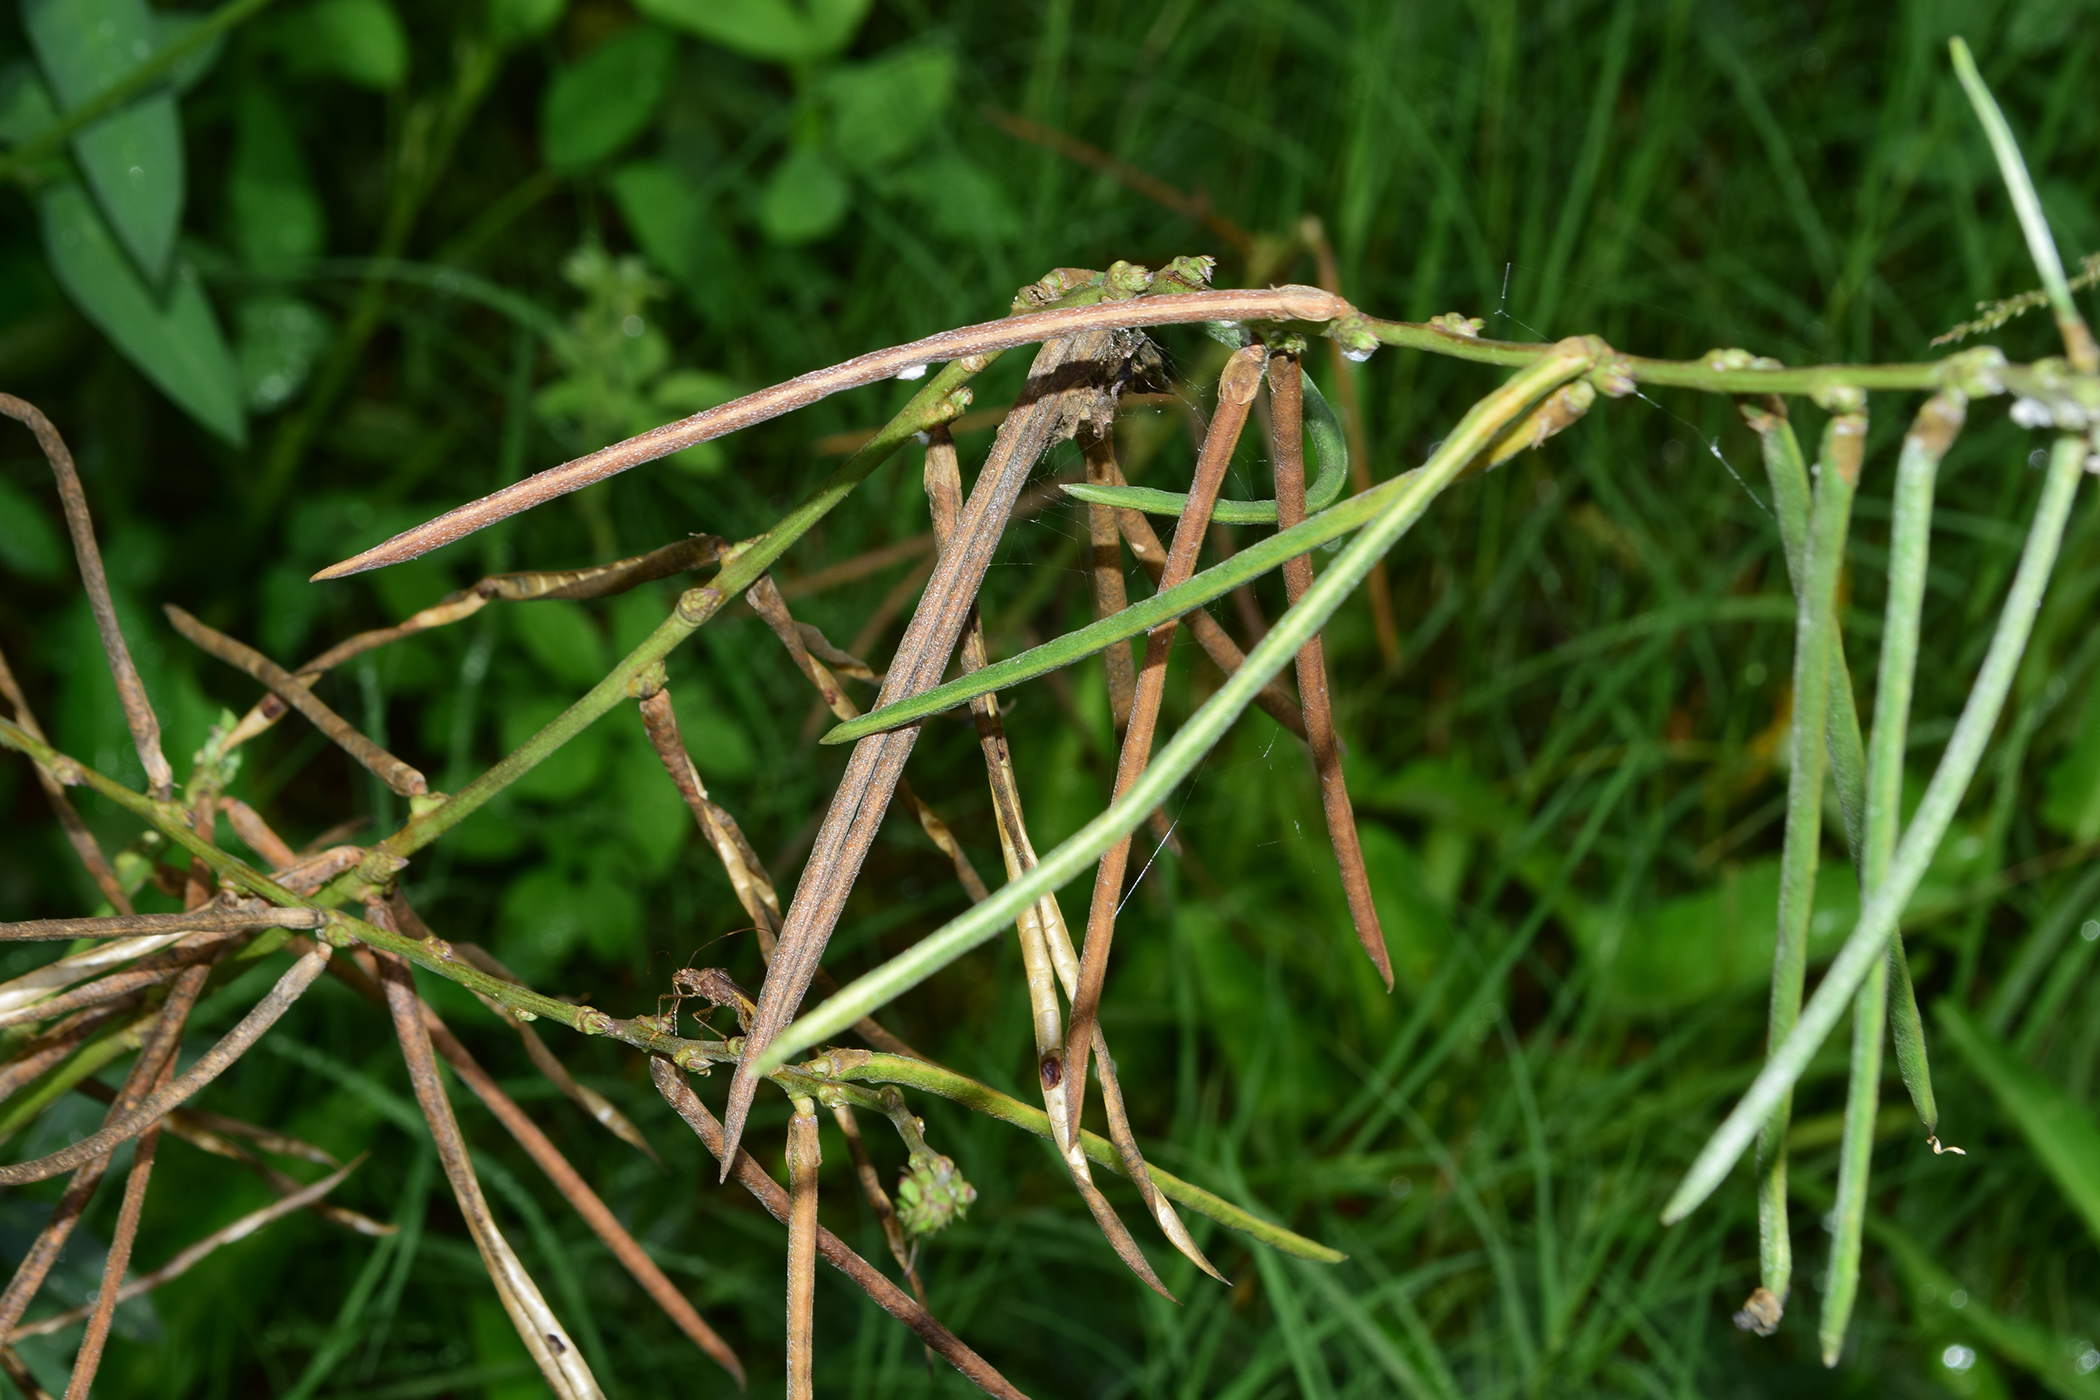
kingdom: Plantae
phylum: Tracheophyta
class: Magnoliopsida
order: Fabales
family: Fabaceae
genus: Macroptilium
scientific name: Macroptilium
